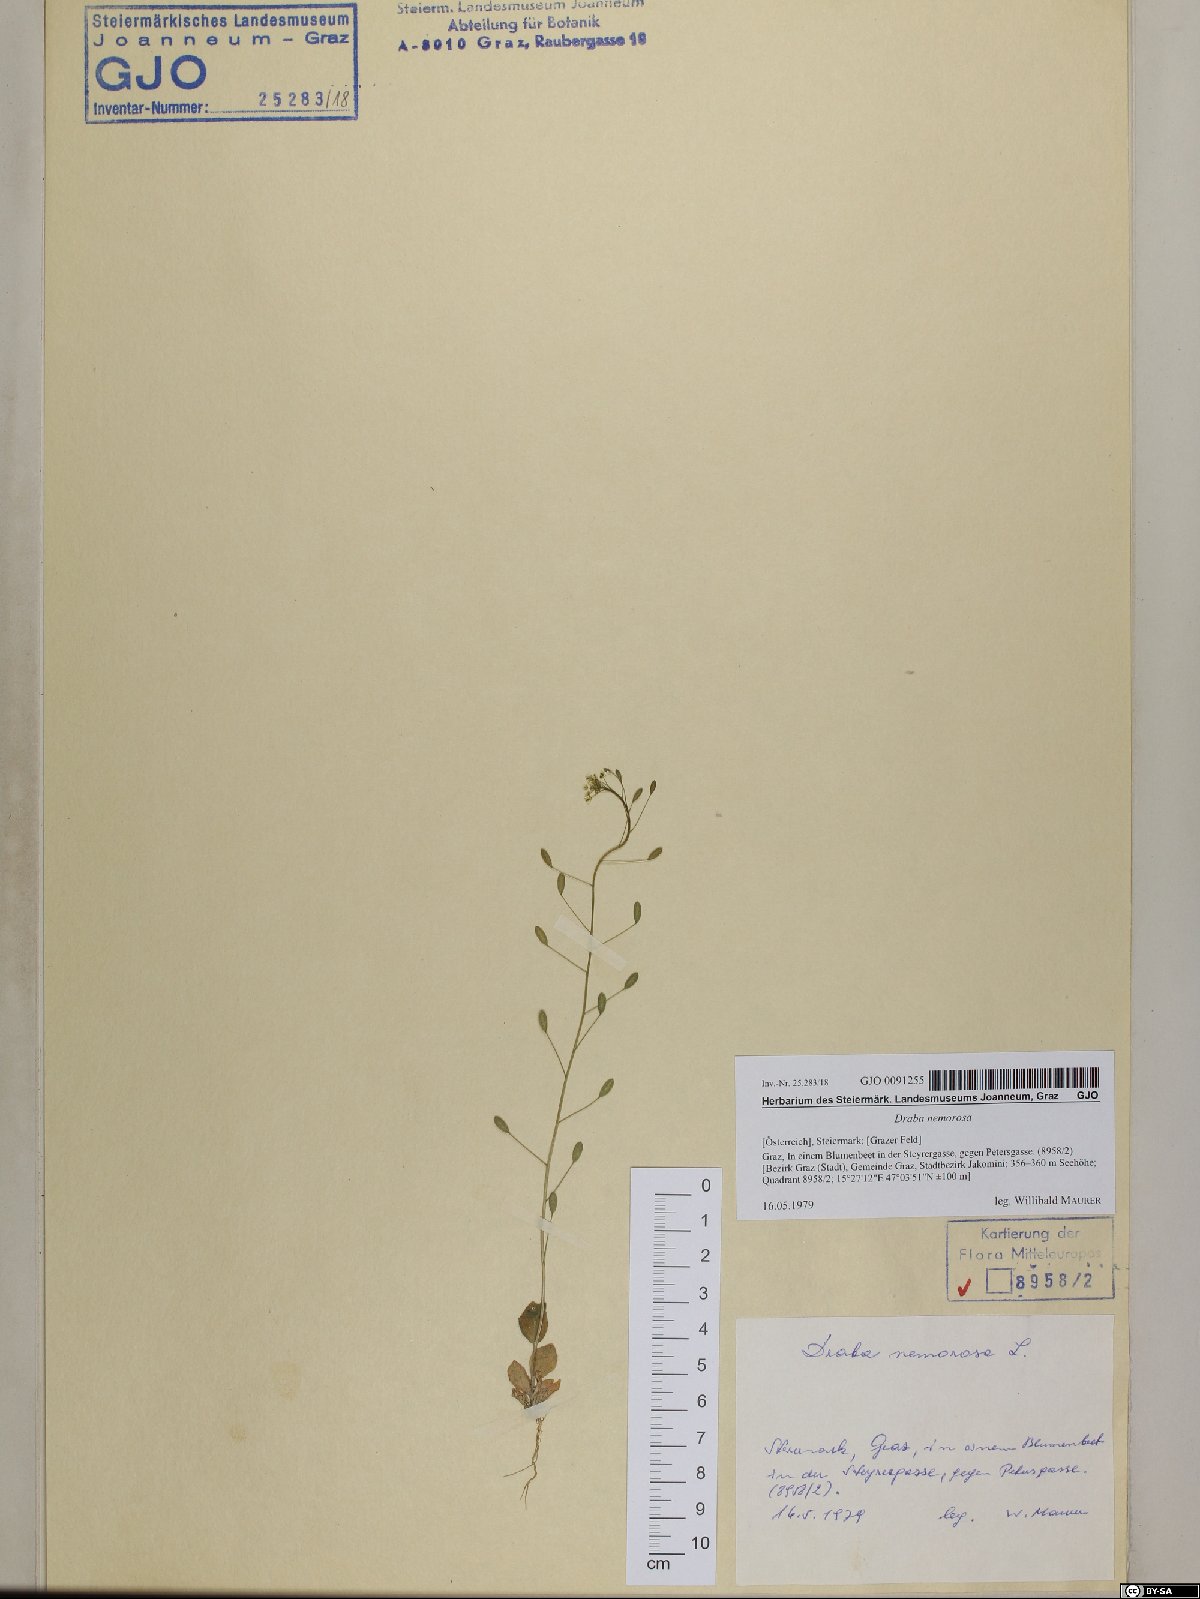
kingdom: Plantae
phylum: Tracheophyta
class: Magnoliopsida
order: Brassicales
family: Brassicaceae
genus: Draba
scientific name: Draba nemorosa
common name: Wood whitlow-grass
